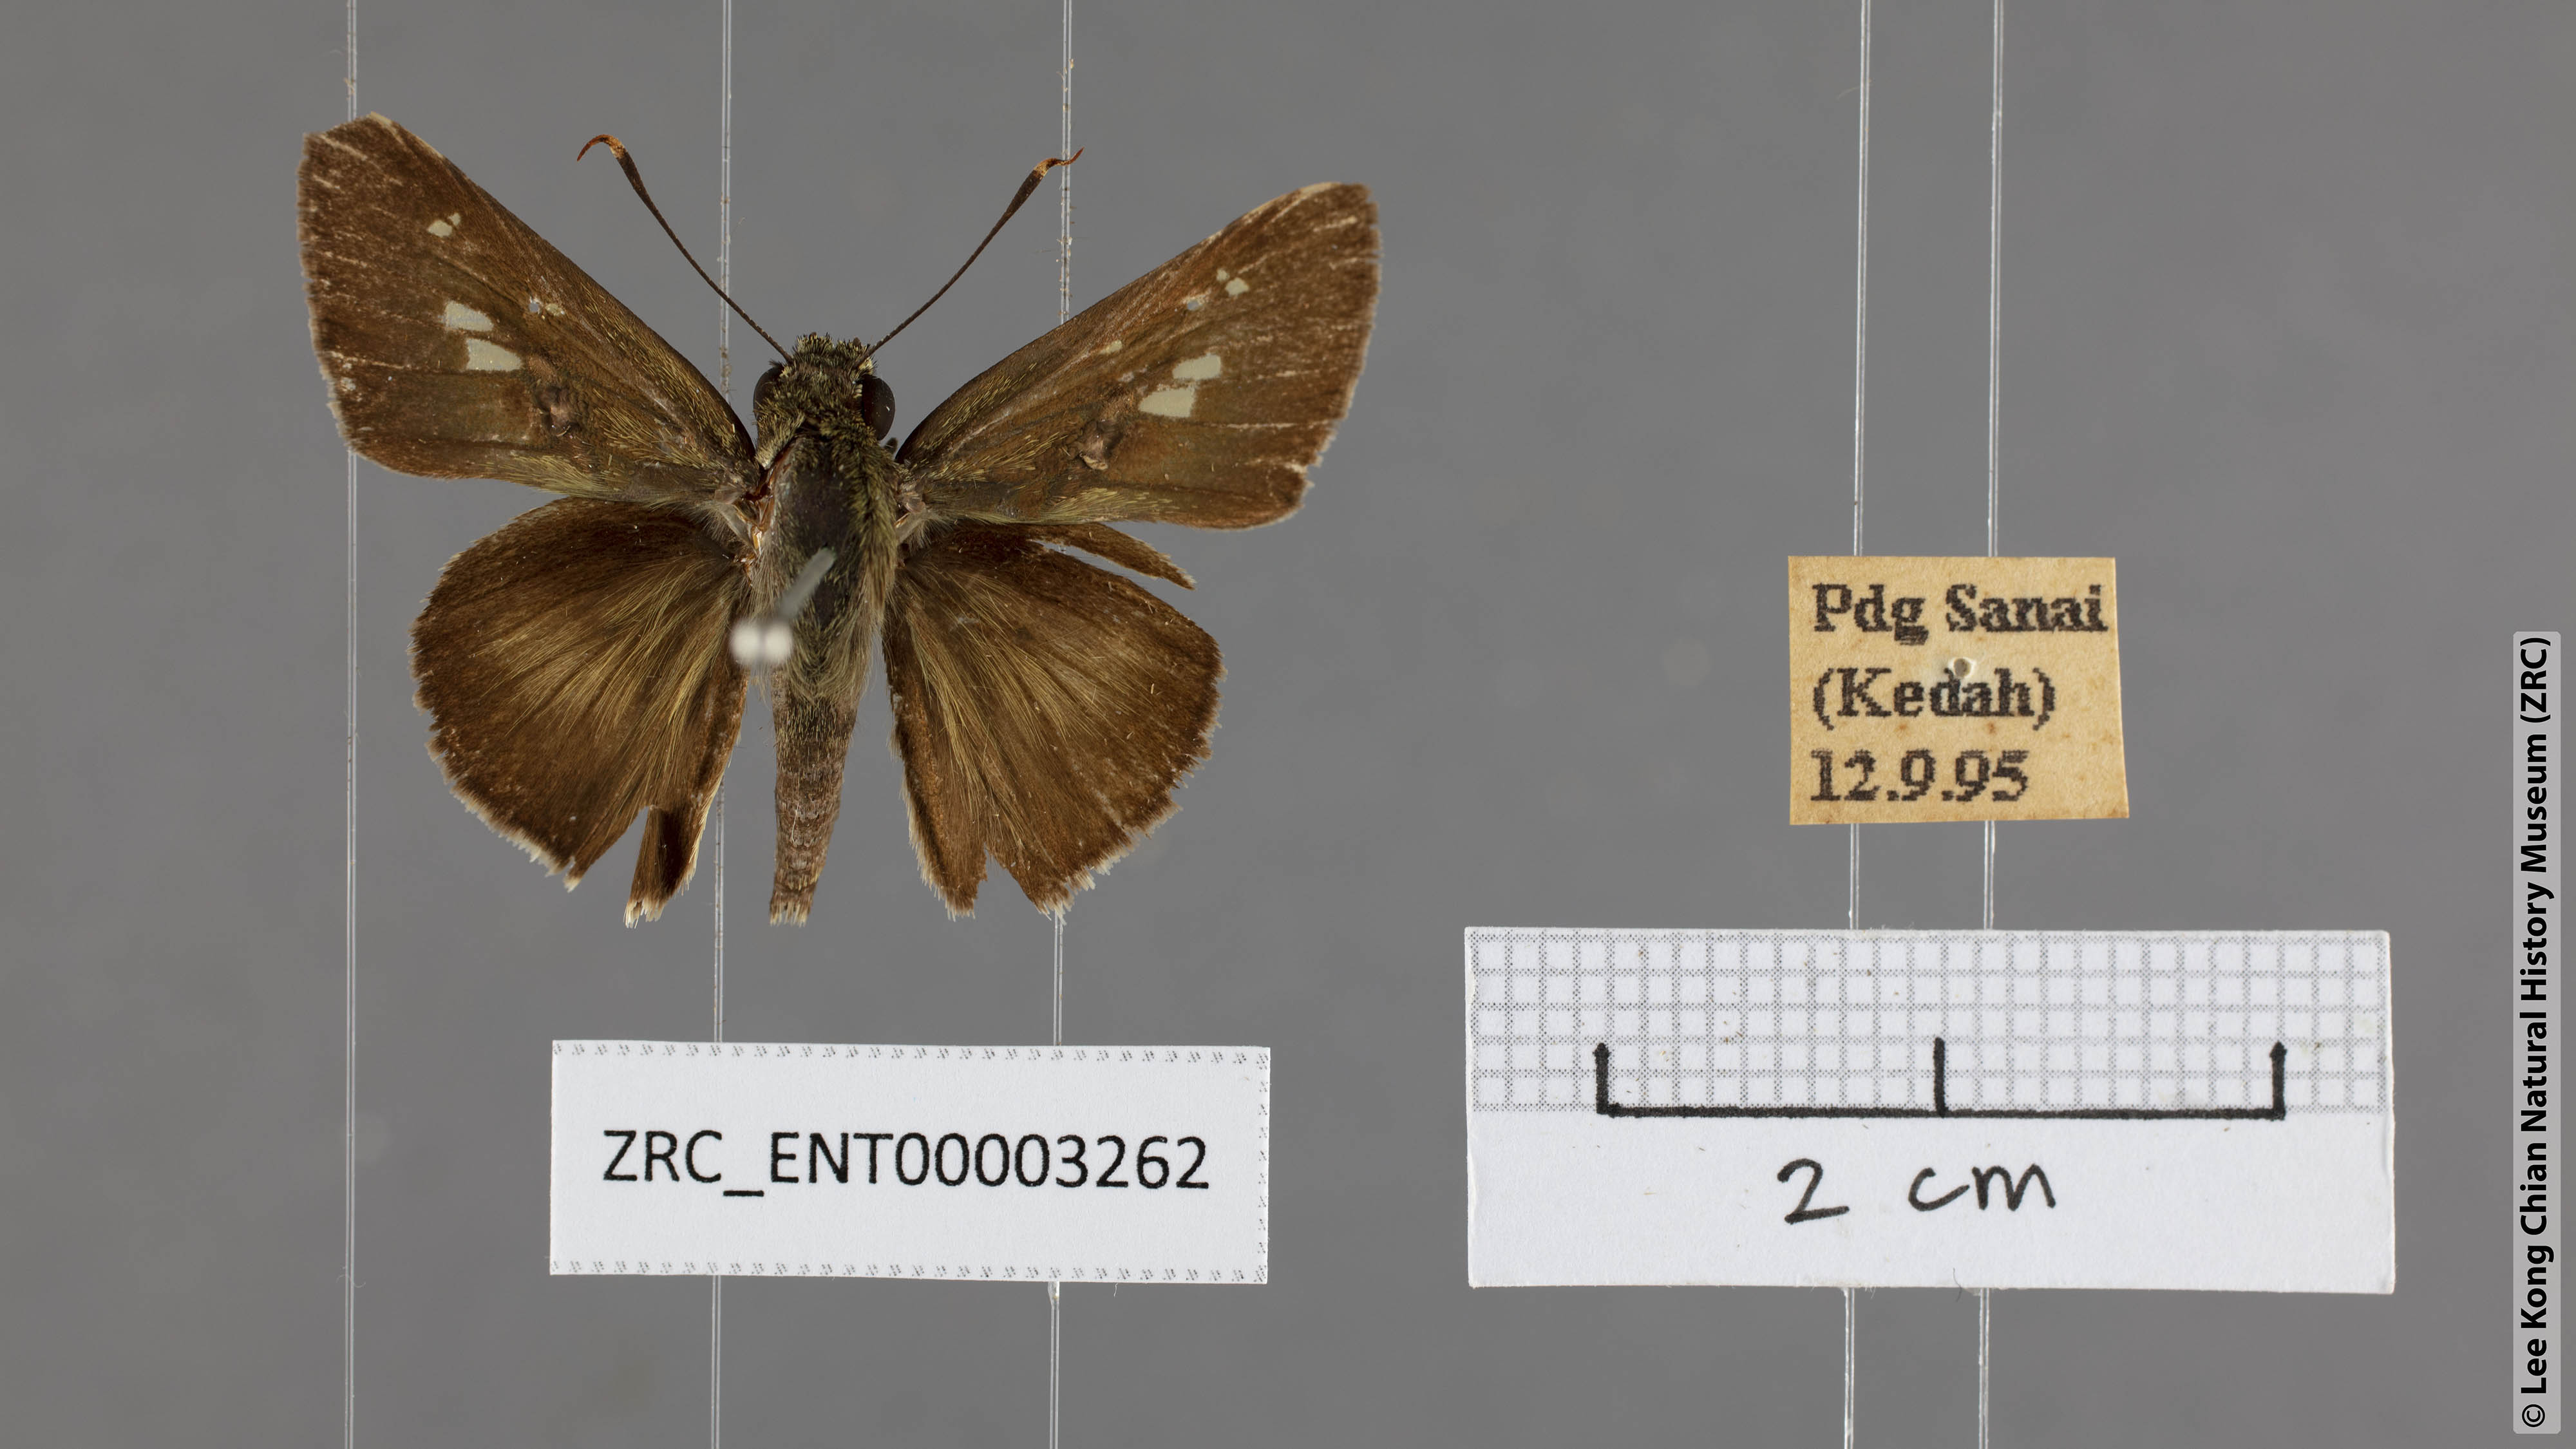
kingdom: Animalia
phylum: Arthropoda
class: Insecta
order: Lepidoptera
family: Hesperiidae
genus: Halpe
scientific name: Halpe zema
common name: Dark banded ace
